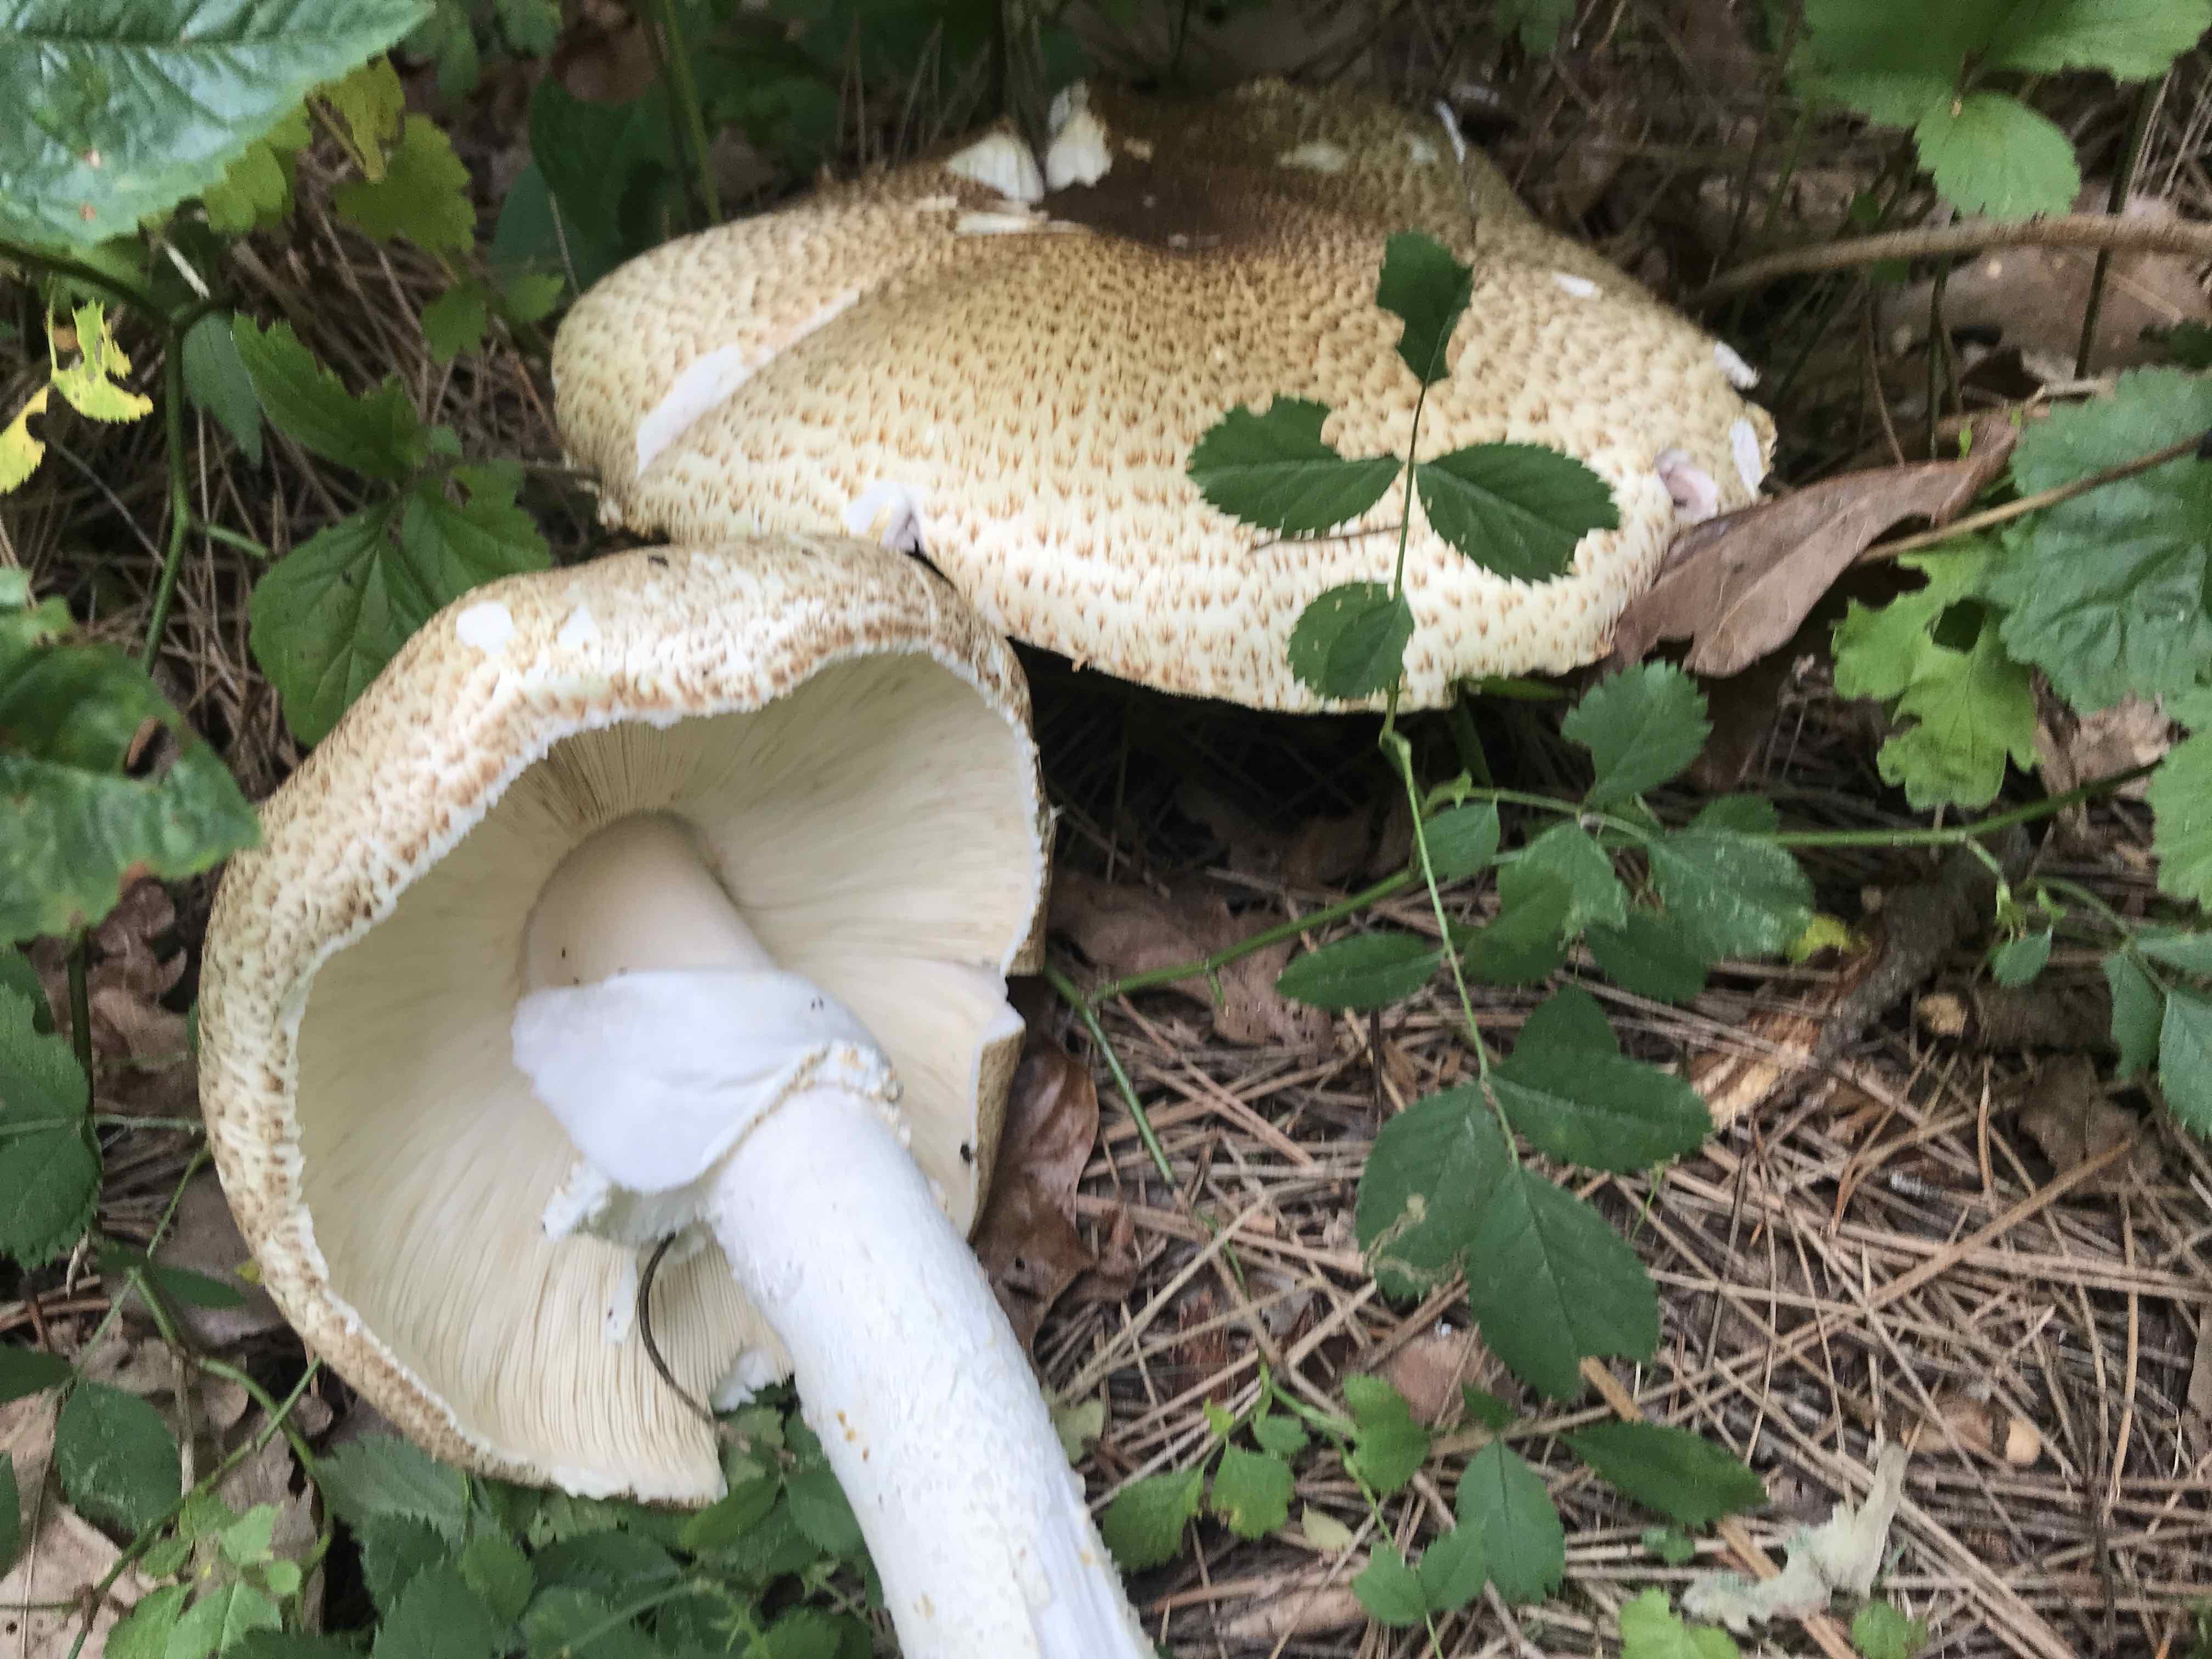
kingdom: Fungi
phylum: Basidiomycota
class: Agaricomycetes
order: Agaricales
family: Agaricaceae
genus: Agaricus
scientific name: Agaricus augustus
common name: prægtig champignon
